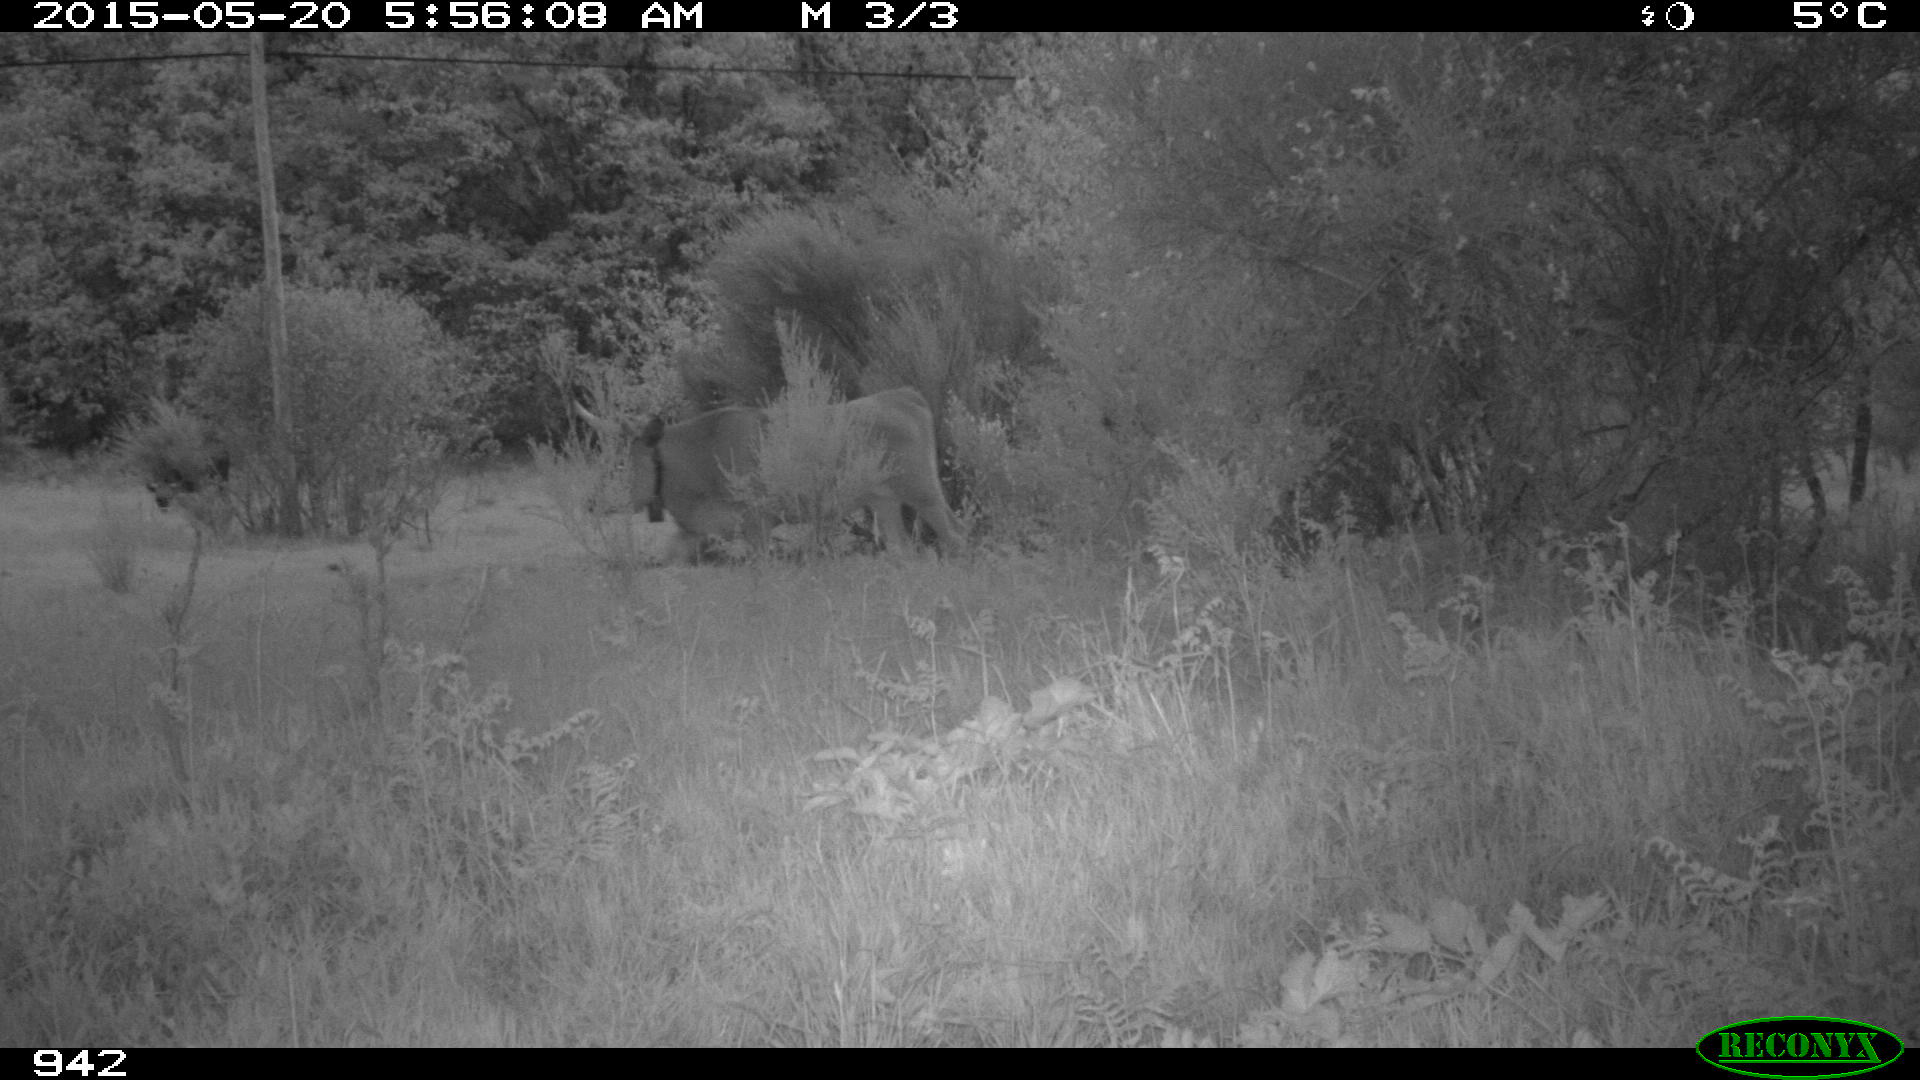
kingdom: Animalia
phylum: Chordata
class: Mammalia
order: Artiodactyla
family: Bovidae
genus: Bos
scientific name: Bos taurus
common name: Domesticated cattle
